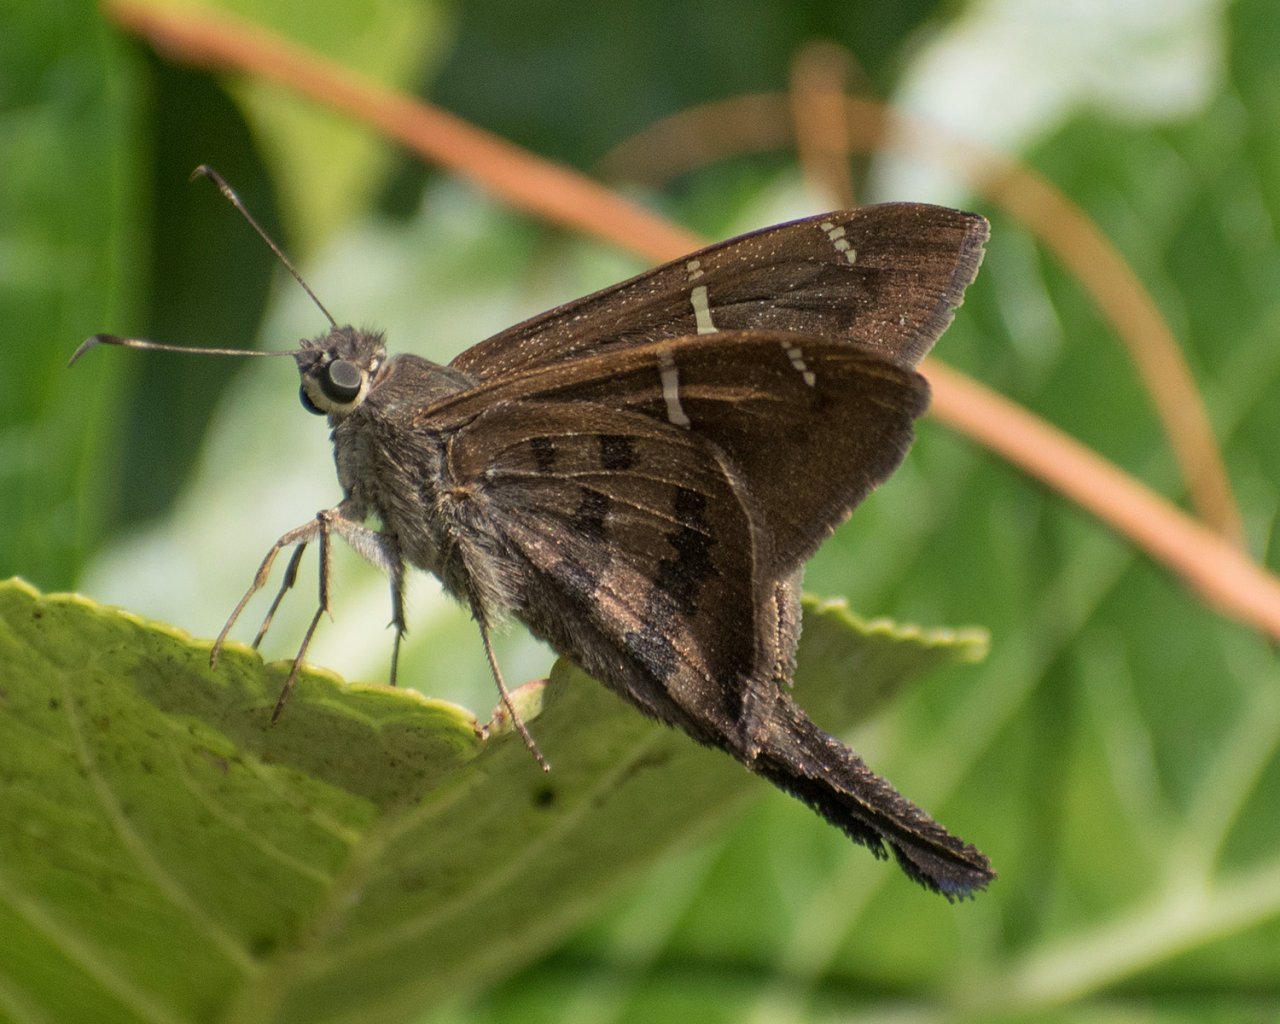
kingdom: Animalia
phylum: Arthropoda
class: Insecta
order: Lepidoptera
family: Hesperiidae
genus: Urbanus
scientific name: Urbanus teleus
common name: Teleus Longtail
